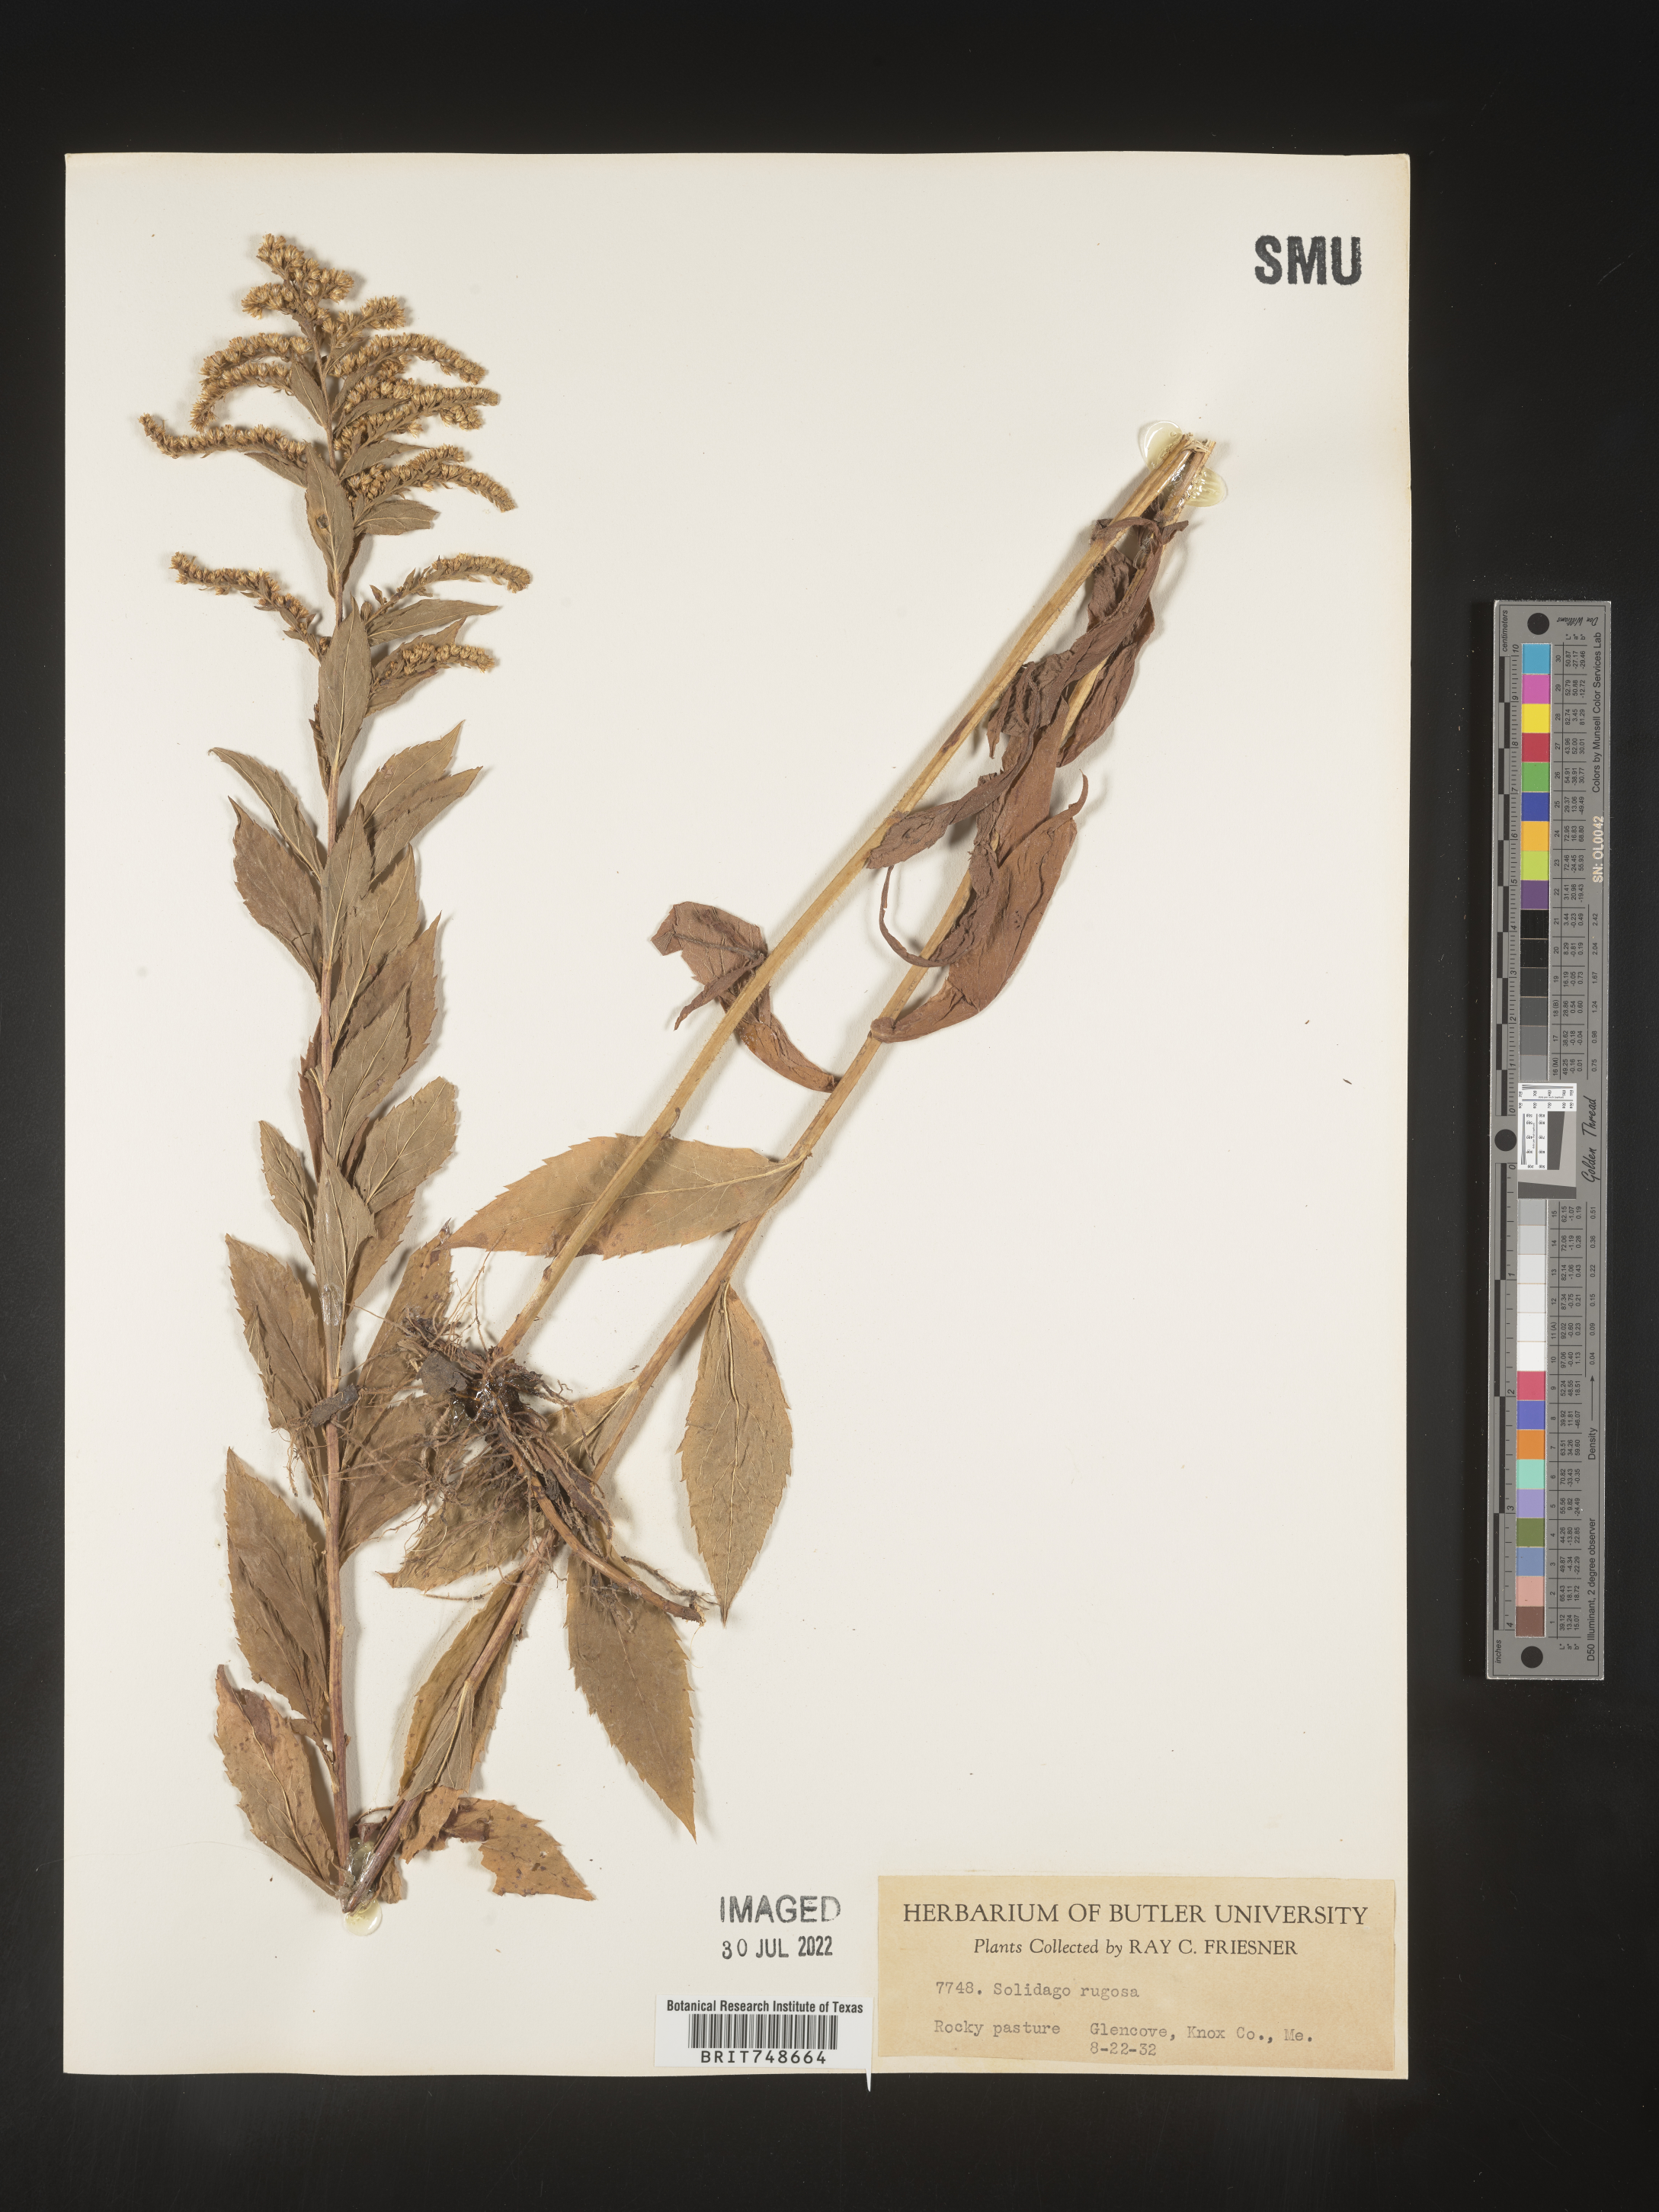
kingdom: Plantae
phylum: Tracheophyta
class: Magnoliopsida
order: Asterales
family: Asteraceae
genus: Solidago
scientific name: Solidago rugosa
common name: Rough-stemmed goldenrod
